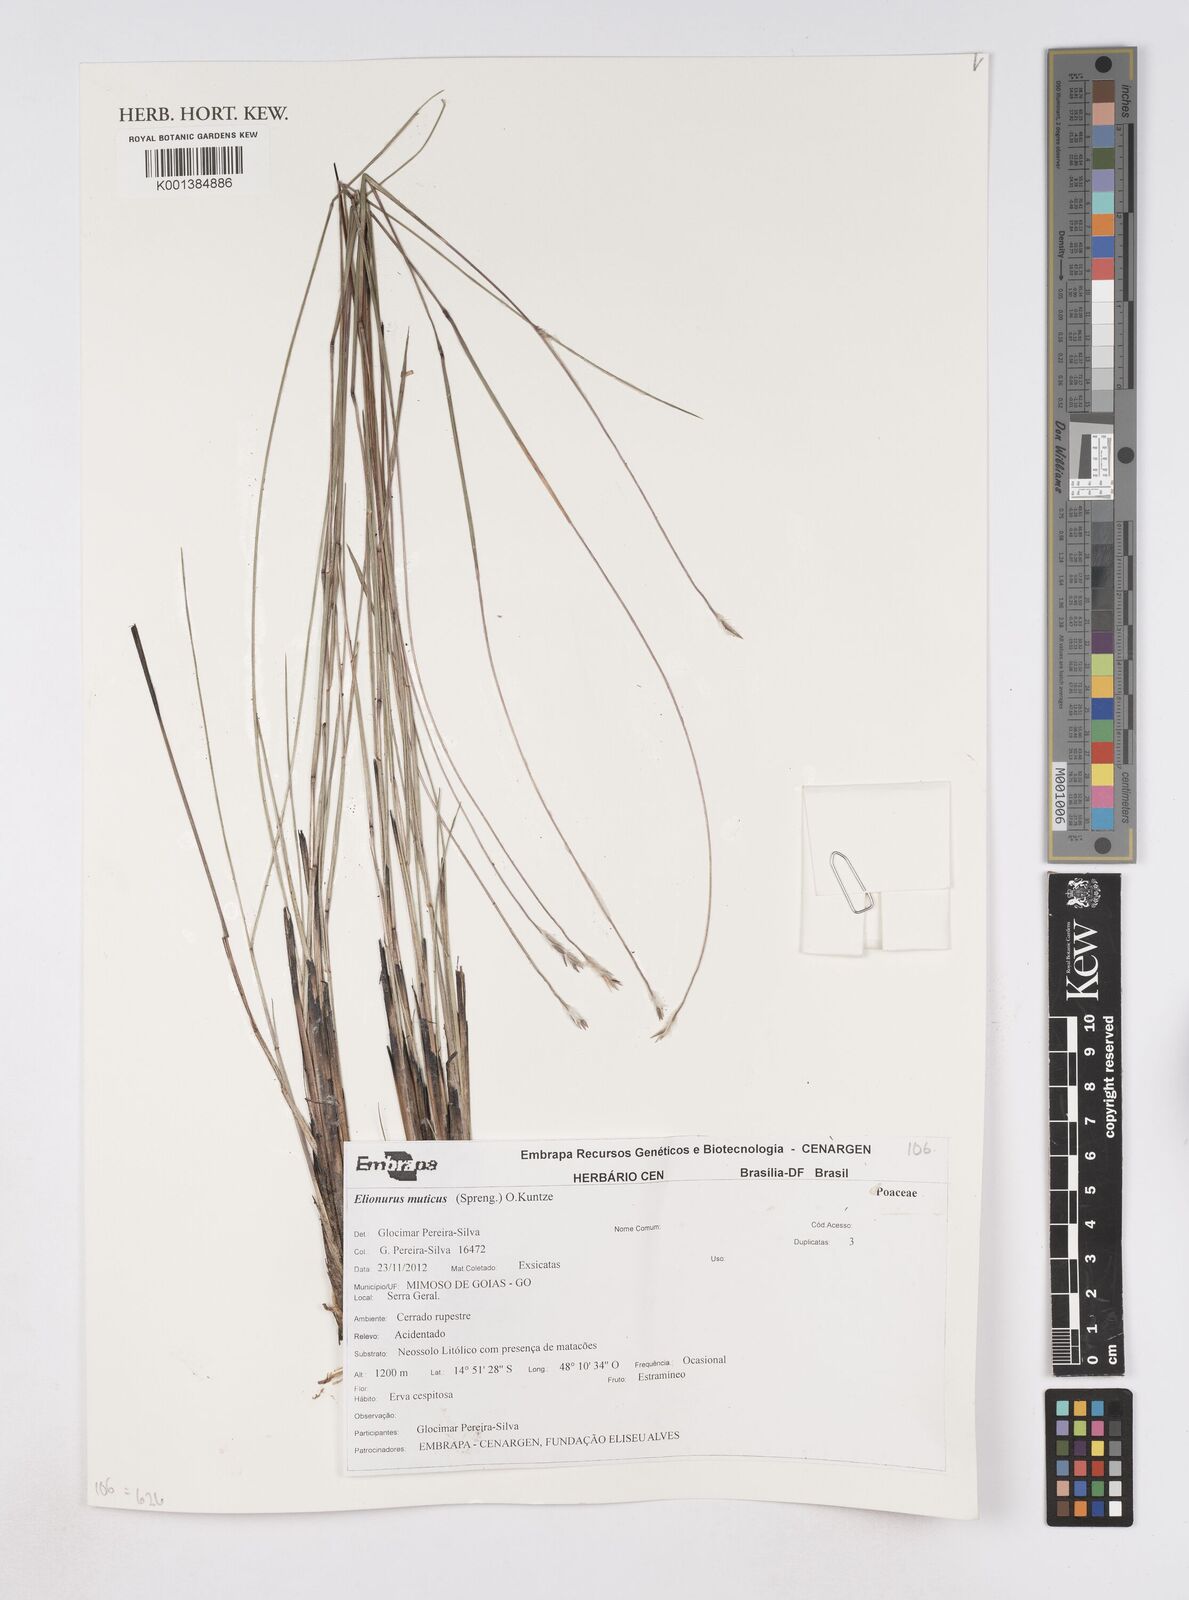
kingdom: Plantae
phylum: Tracheophyta
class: Liliopsida
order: Poales
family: Poaceae
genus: Elionurus
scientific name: Elionurus muticus
